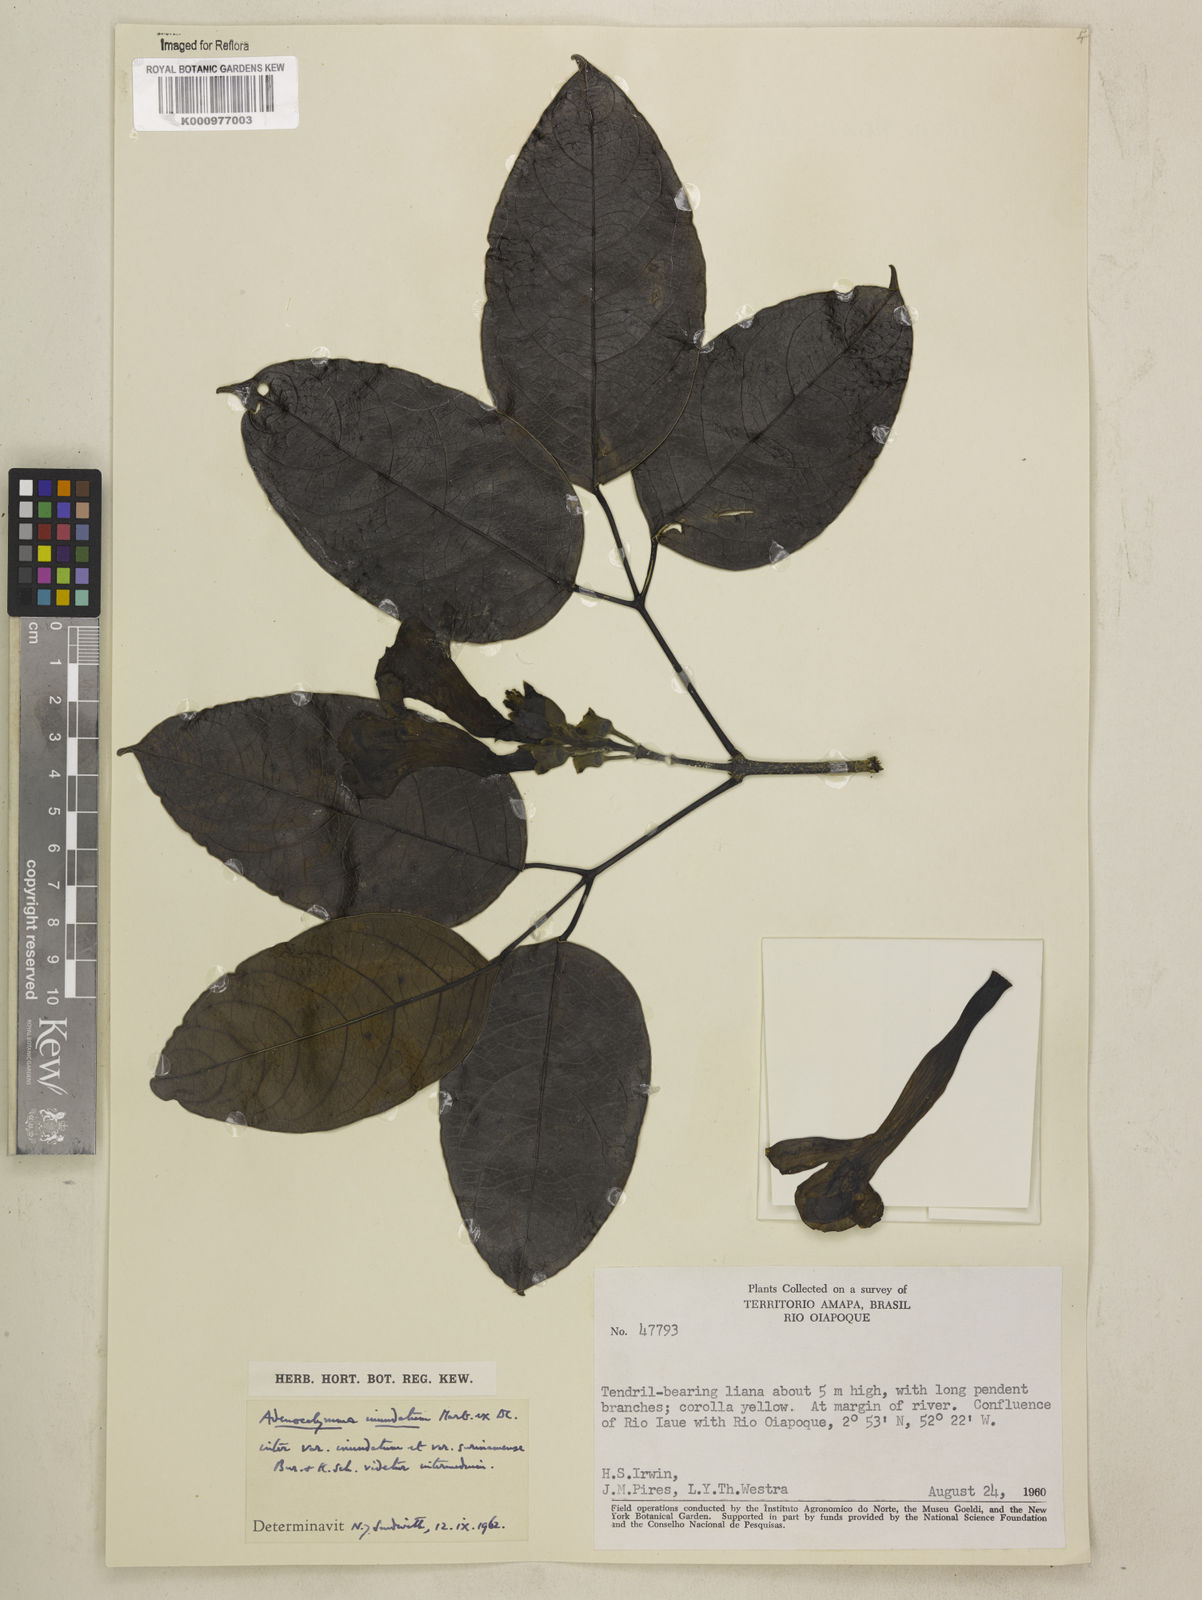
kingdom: Plantae
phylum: Tracheophyta
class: Magnoliopsida
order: Lamiales
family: Bignoniaceae
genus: Adenocalymma
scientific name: Adenocalymma inundatum
